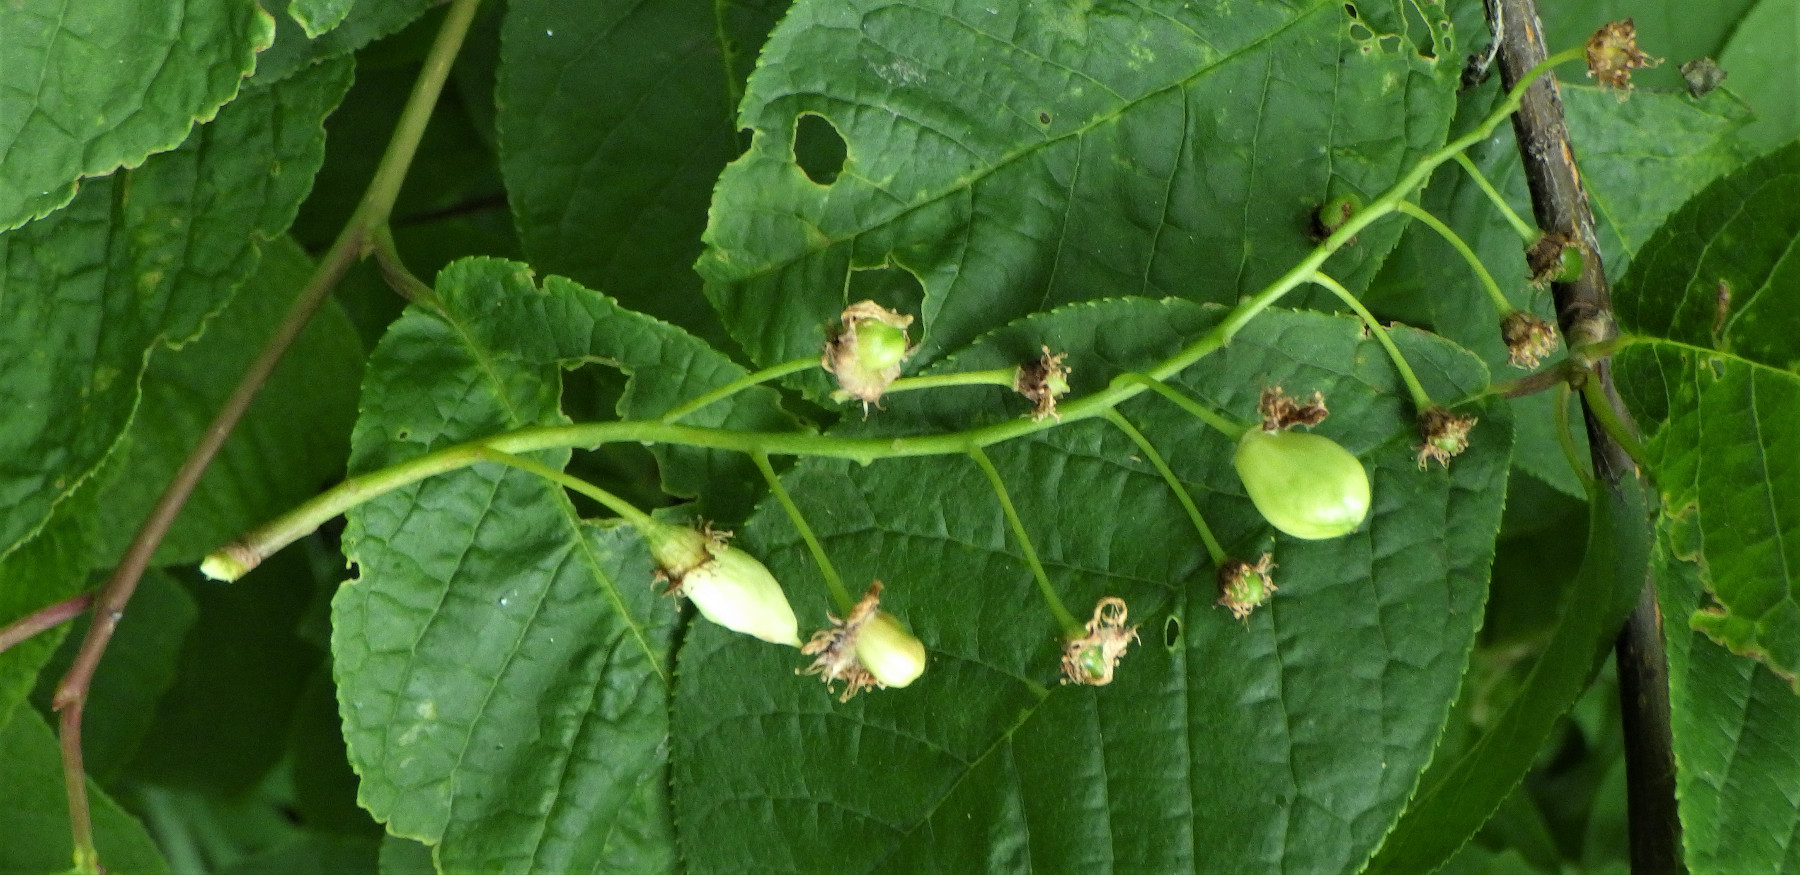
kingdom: Fungi
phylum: Ascomycota
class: Taphrinomycetes
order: Taphrinales
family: Taphrinaceae
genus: Taphrina
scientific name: Taphrina padi
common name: Bird cherry pocket
